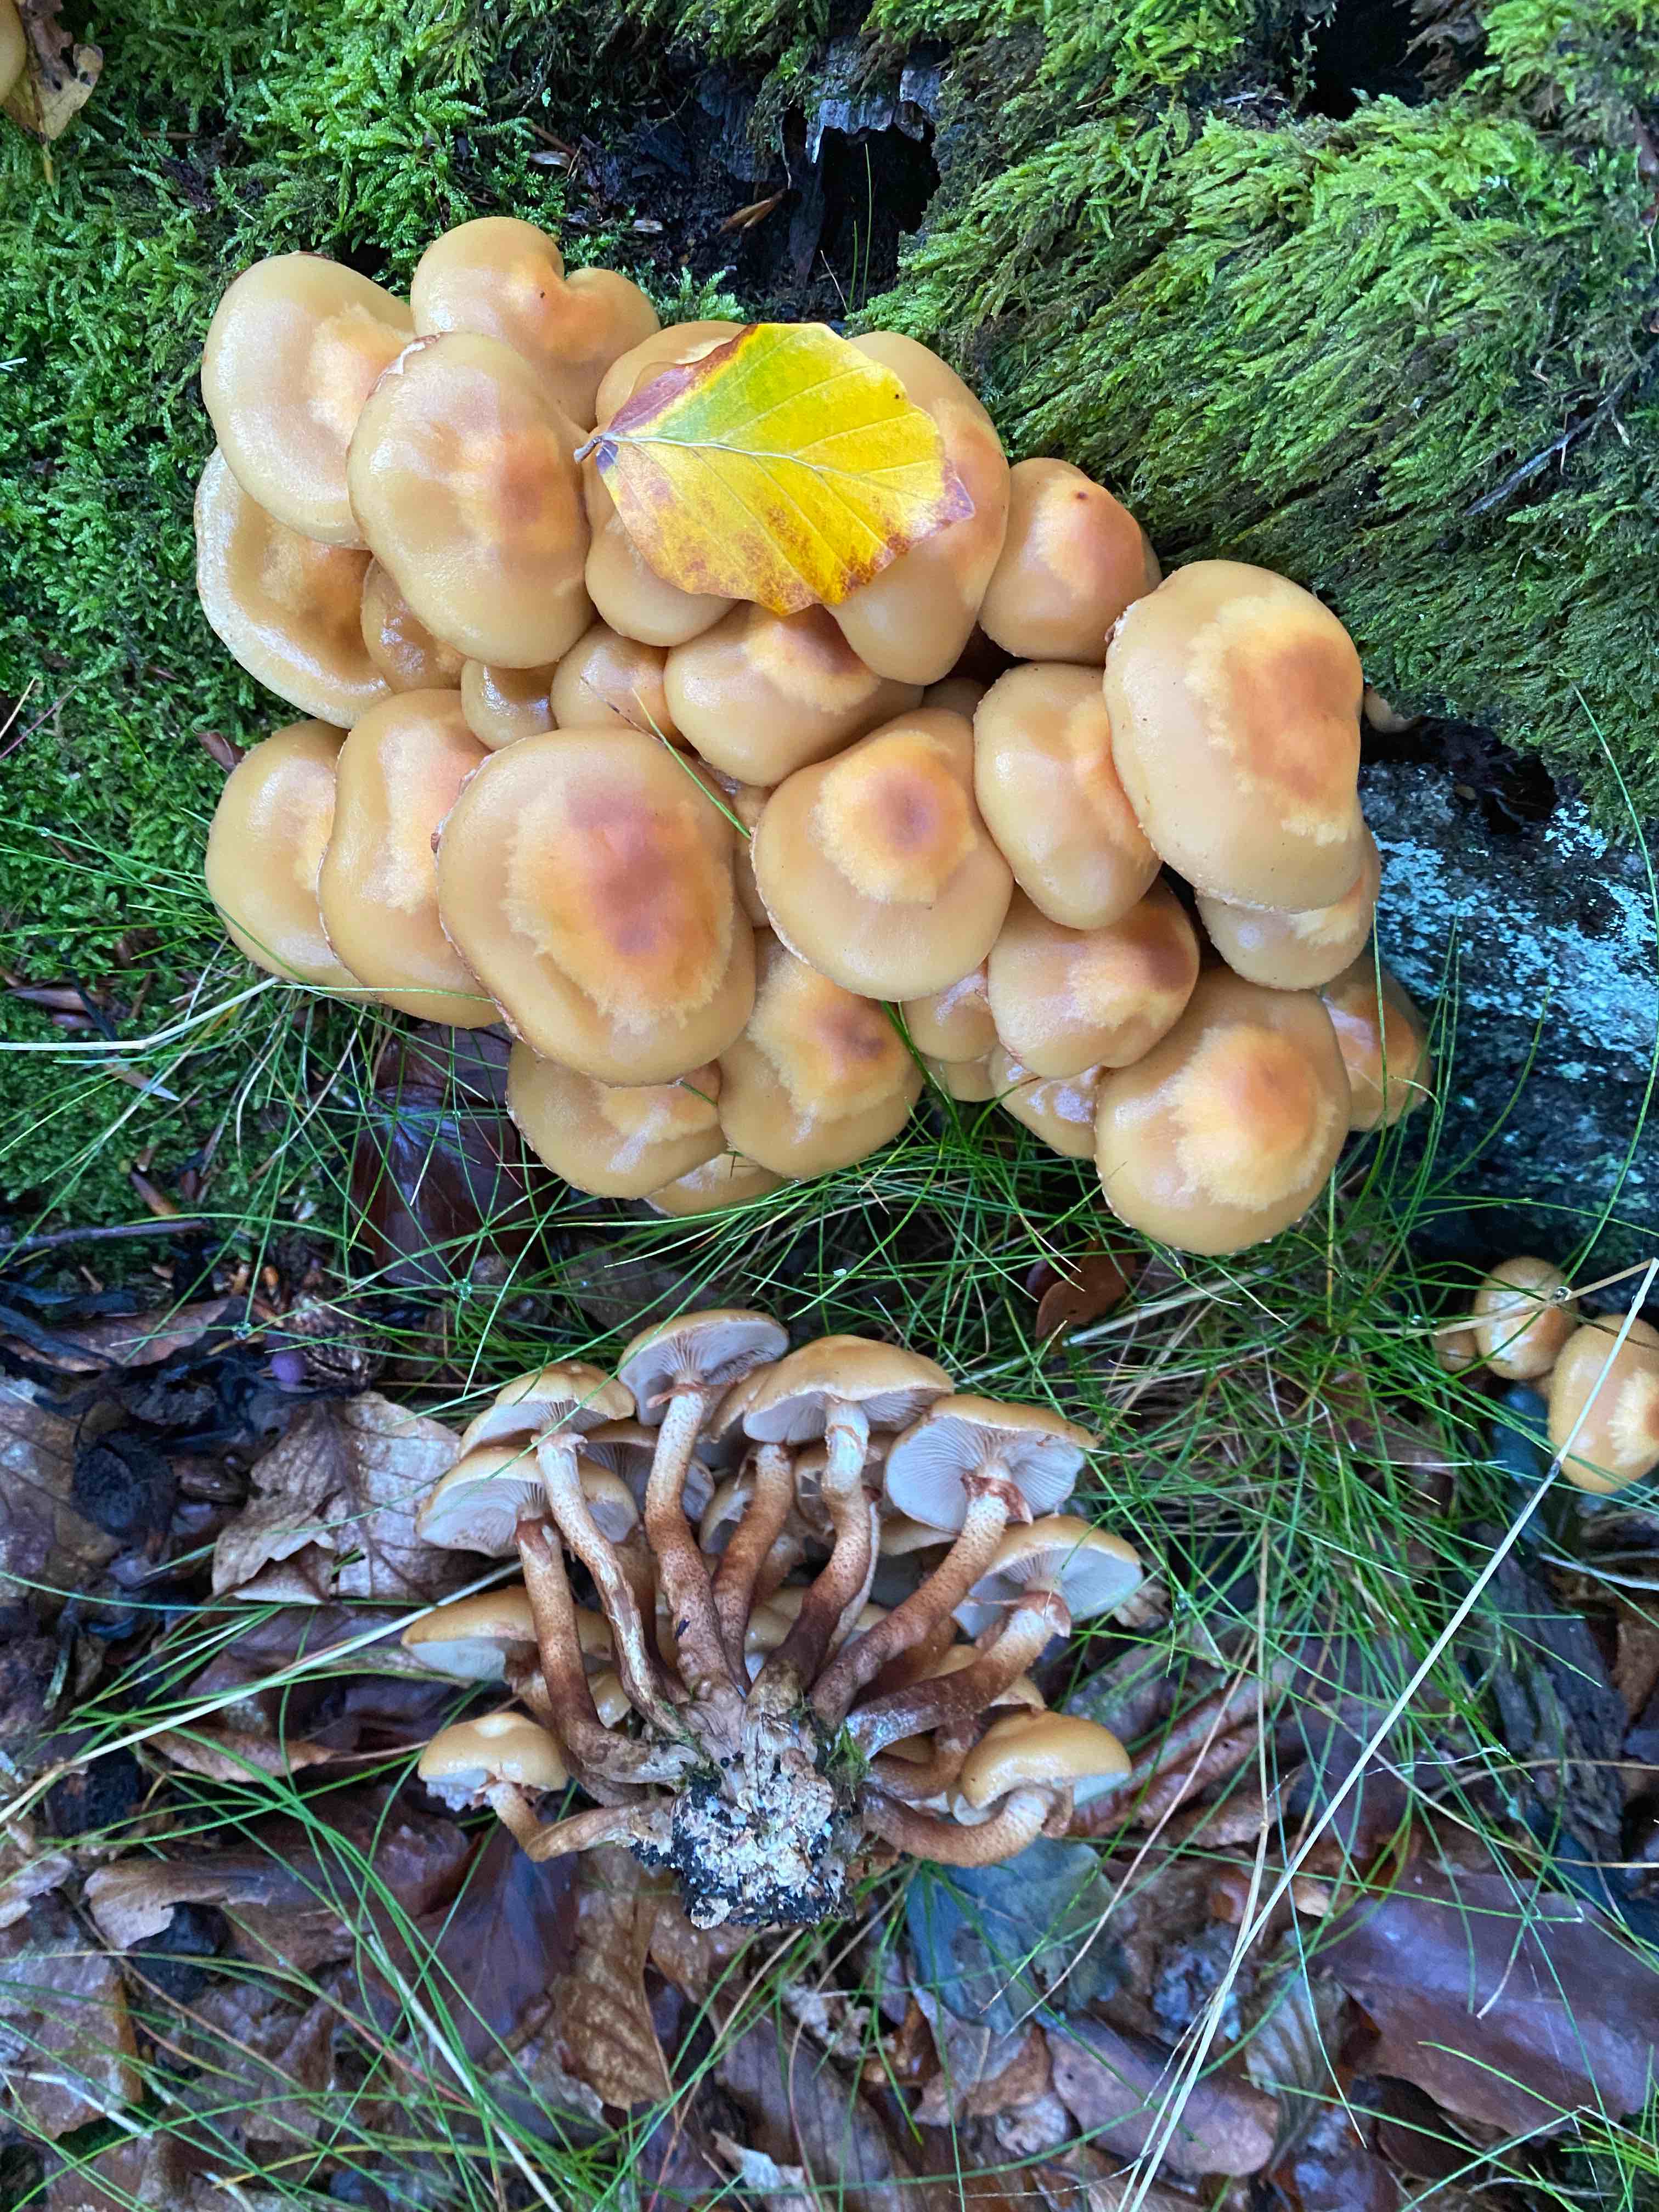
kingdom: Fungi
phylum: Basidiomycota
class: Agaricomycetes
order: Agaricales
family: Strophariaceae
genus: Kuehneromyces
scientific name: Kuehneromyces mutabilis
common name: foranderlig skælhat
